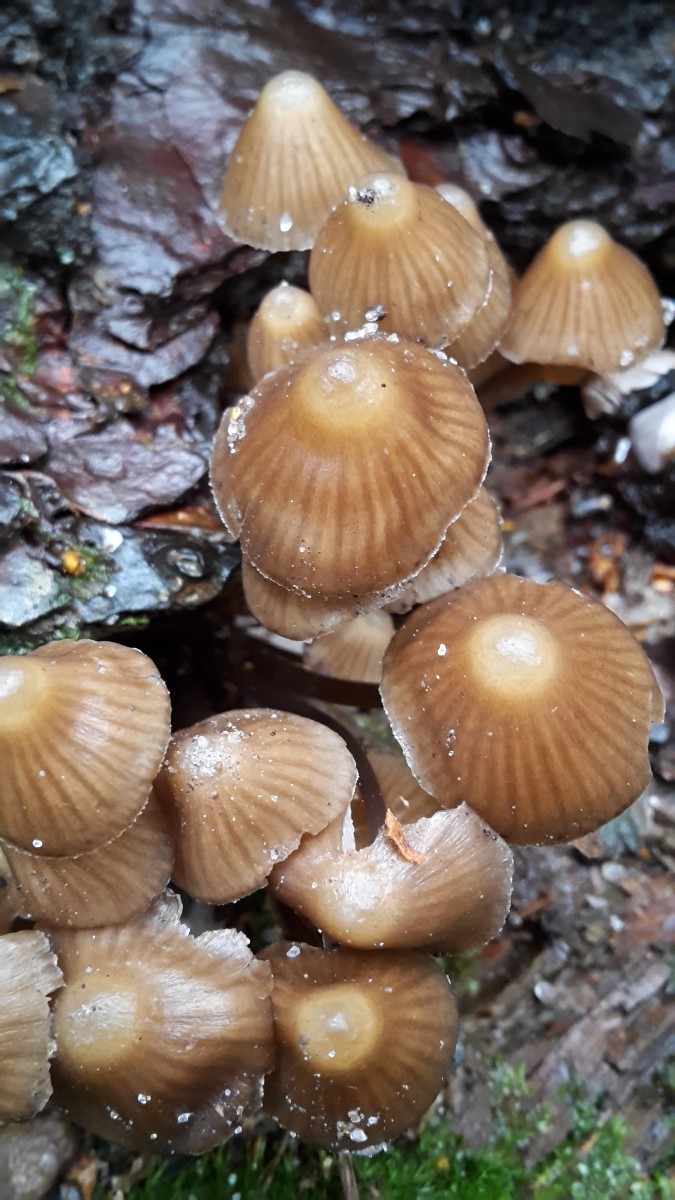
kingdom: Fungi
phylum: Basidiomycota
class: Agaricomycetes
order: Agaricales
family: Mycenaceae
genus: Mycena
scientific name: Mycena stipata
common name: stinkende huesvamp
